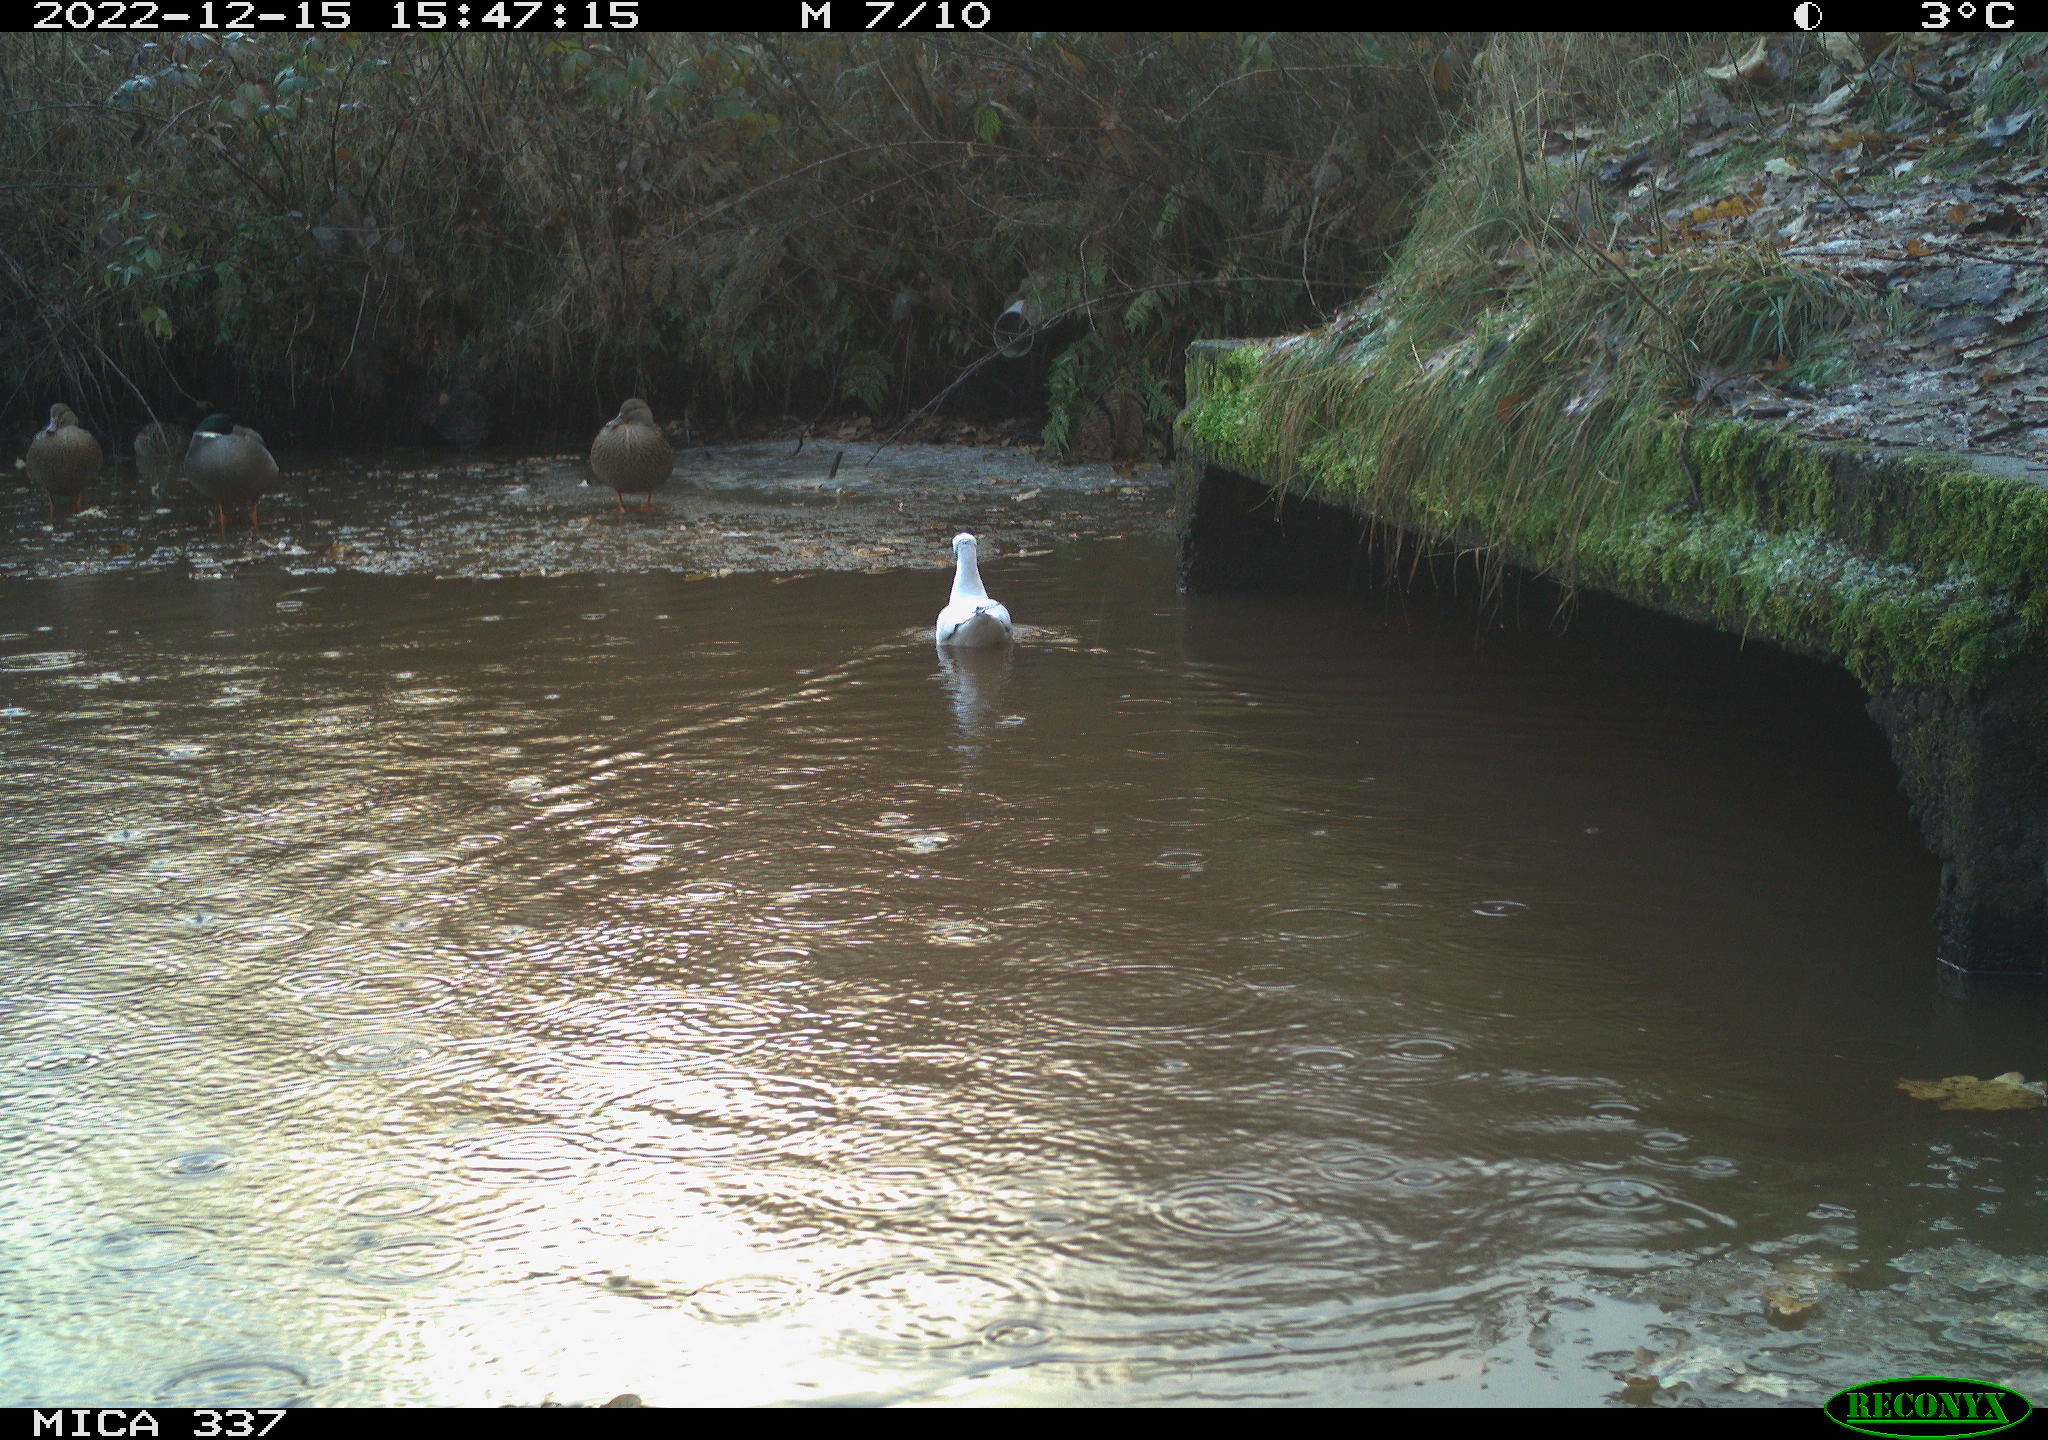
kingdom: Animalia
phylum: Chordata
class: Aves
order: Anseriformes
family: Anatidae
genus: Anas
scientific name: Anas
